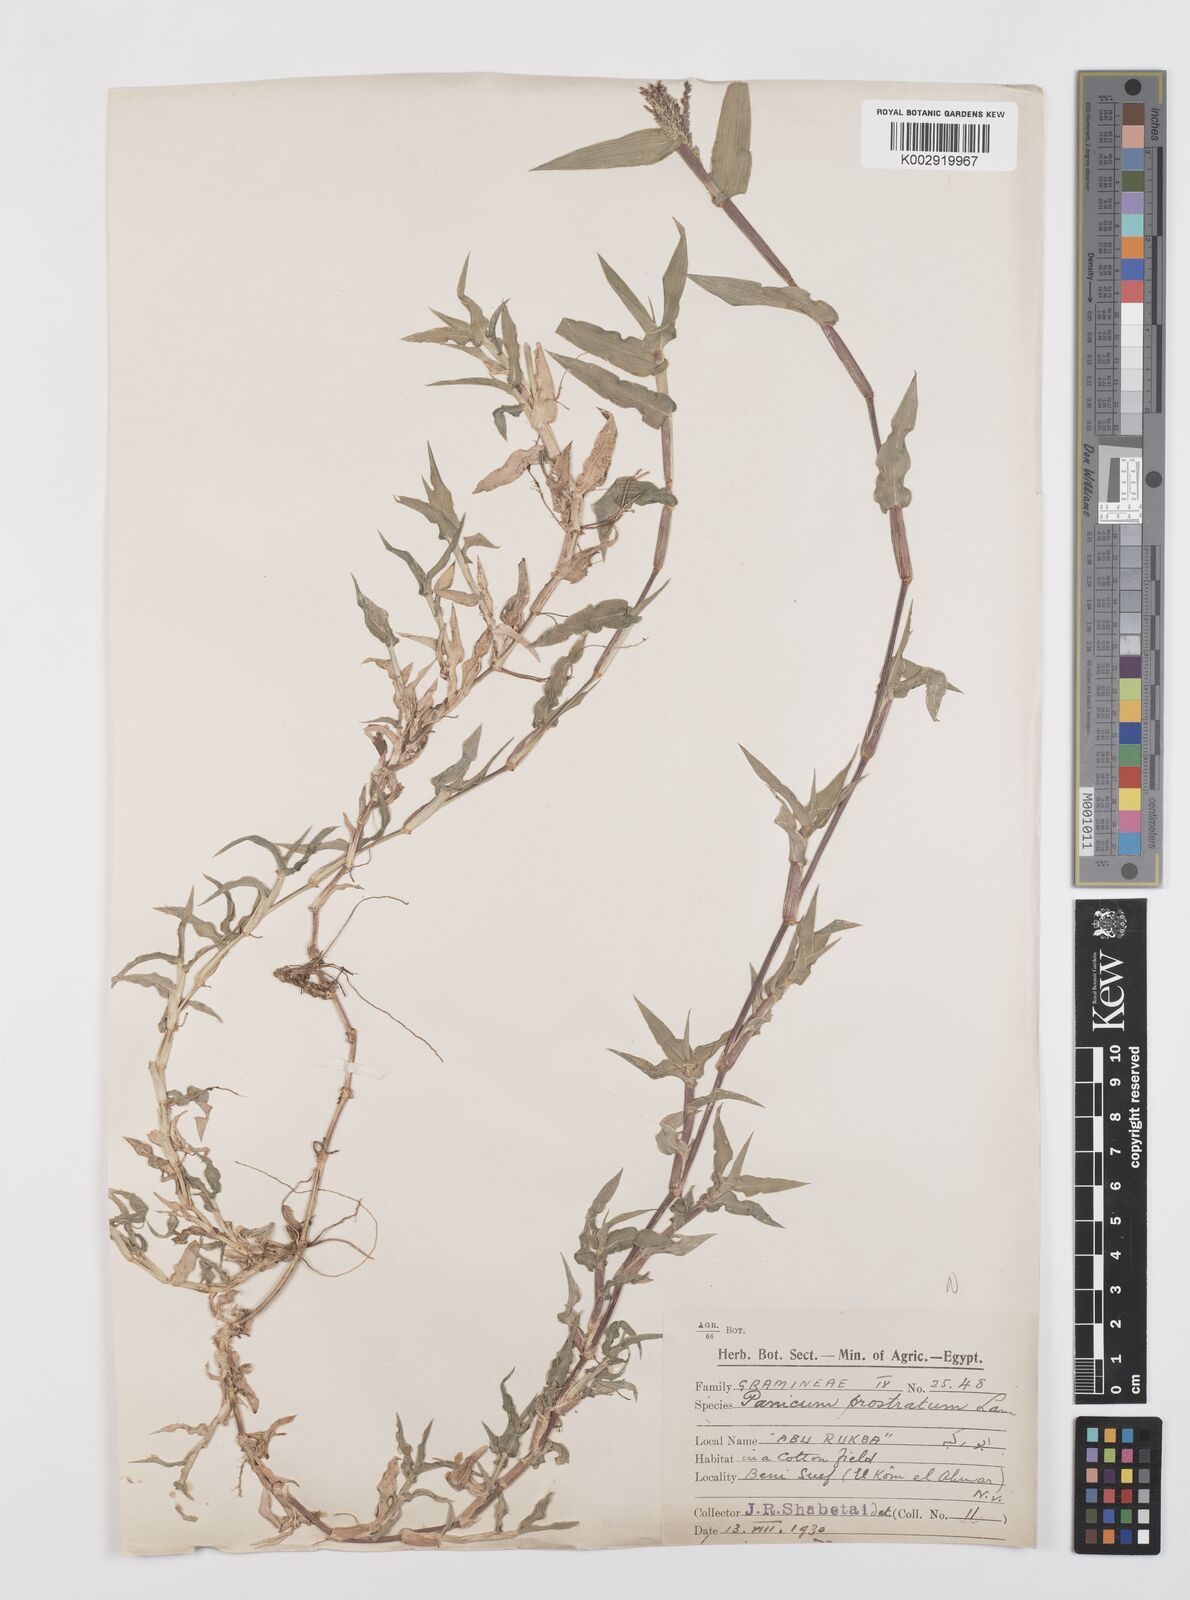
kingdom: Plantae
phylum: Tracheophyta
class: Liliopsida
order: Poales
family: Poaceae
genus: Urochloa
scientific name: Urochloa reptans
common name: Sprawling signalgrass
